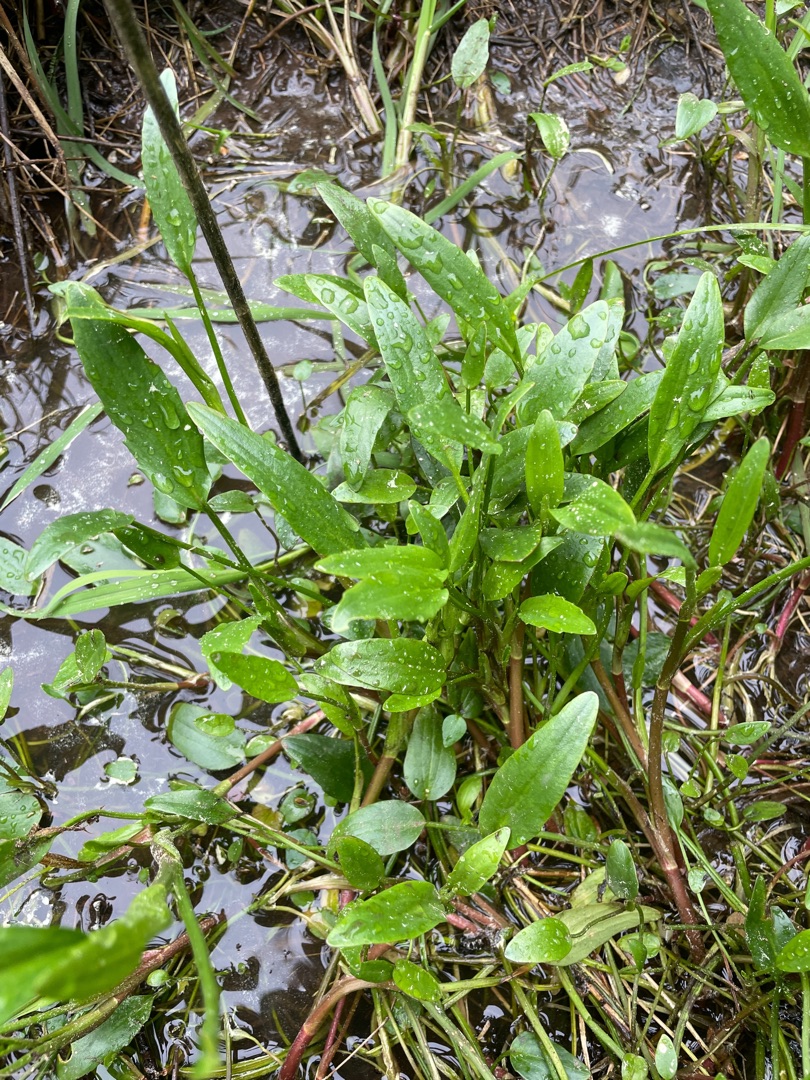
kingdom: Plantae
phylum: Tracheophyta
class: Magnoliopsida
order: Ranunculales
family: Ranunculaceae
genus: Ranunculus
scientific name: Ranunculus lingua
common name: Langbladet ranunkel
